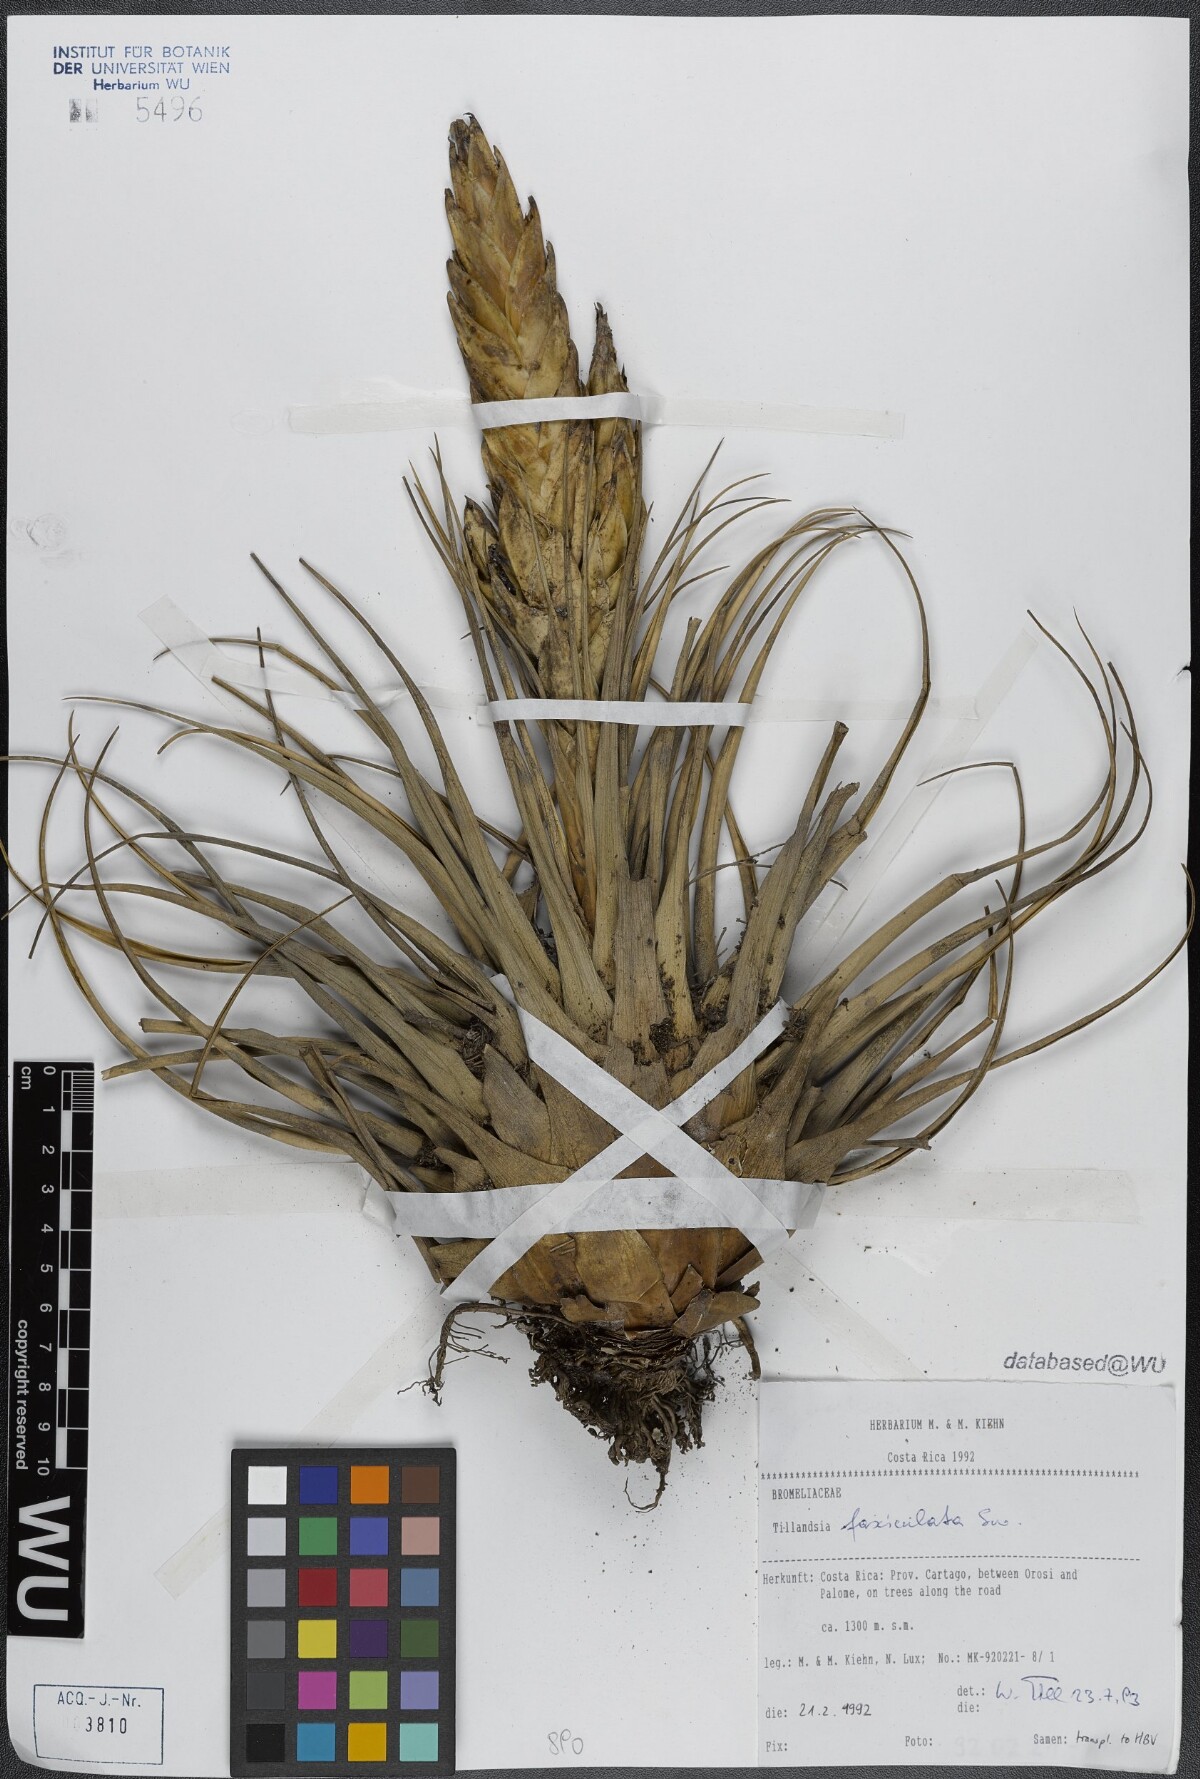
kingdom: Plantae
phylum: Tracheophyta
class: Liliopsida
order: Poales
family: Bromeliaceae
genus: Tillandsia
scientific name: Tillandsia fasciculata
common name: Giant airplant
